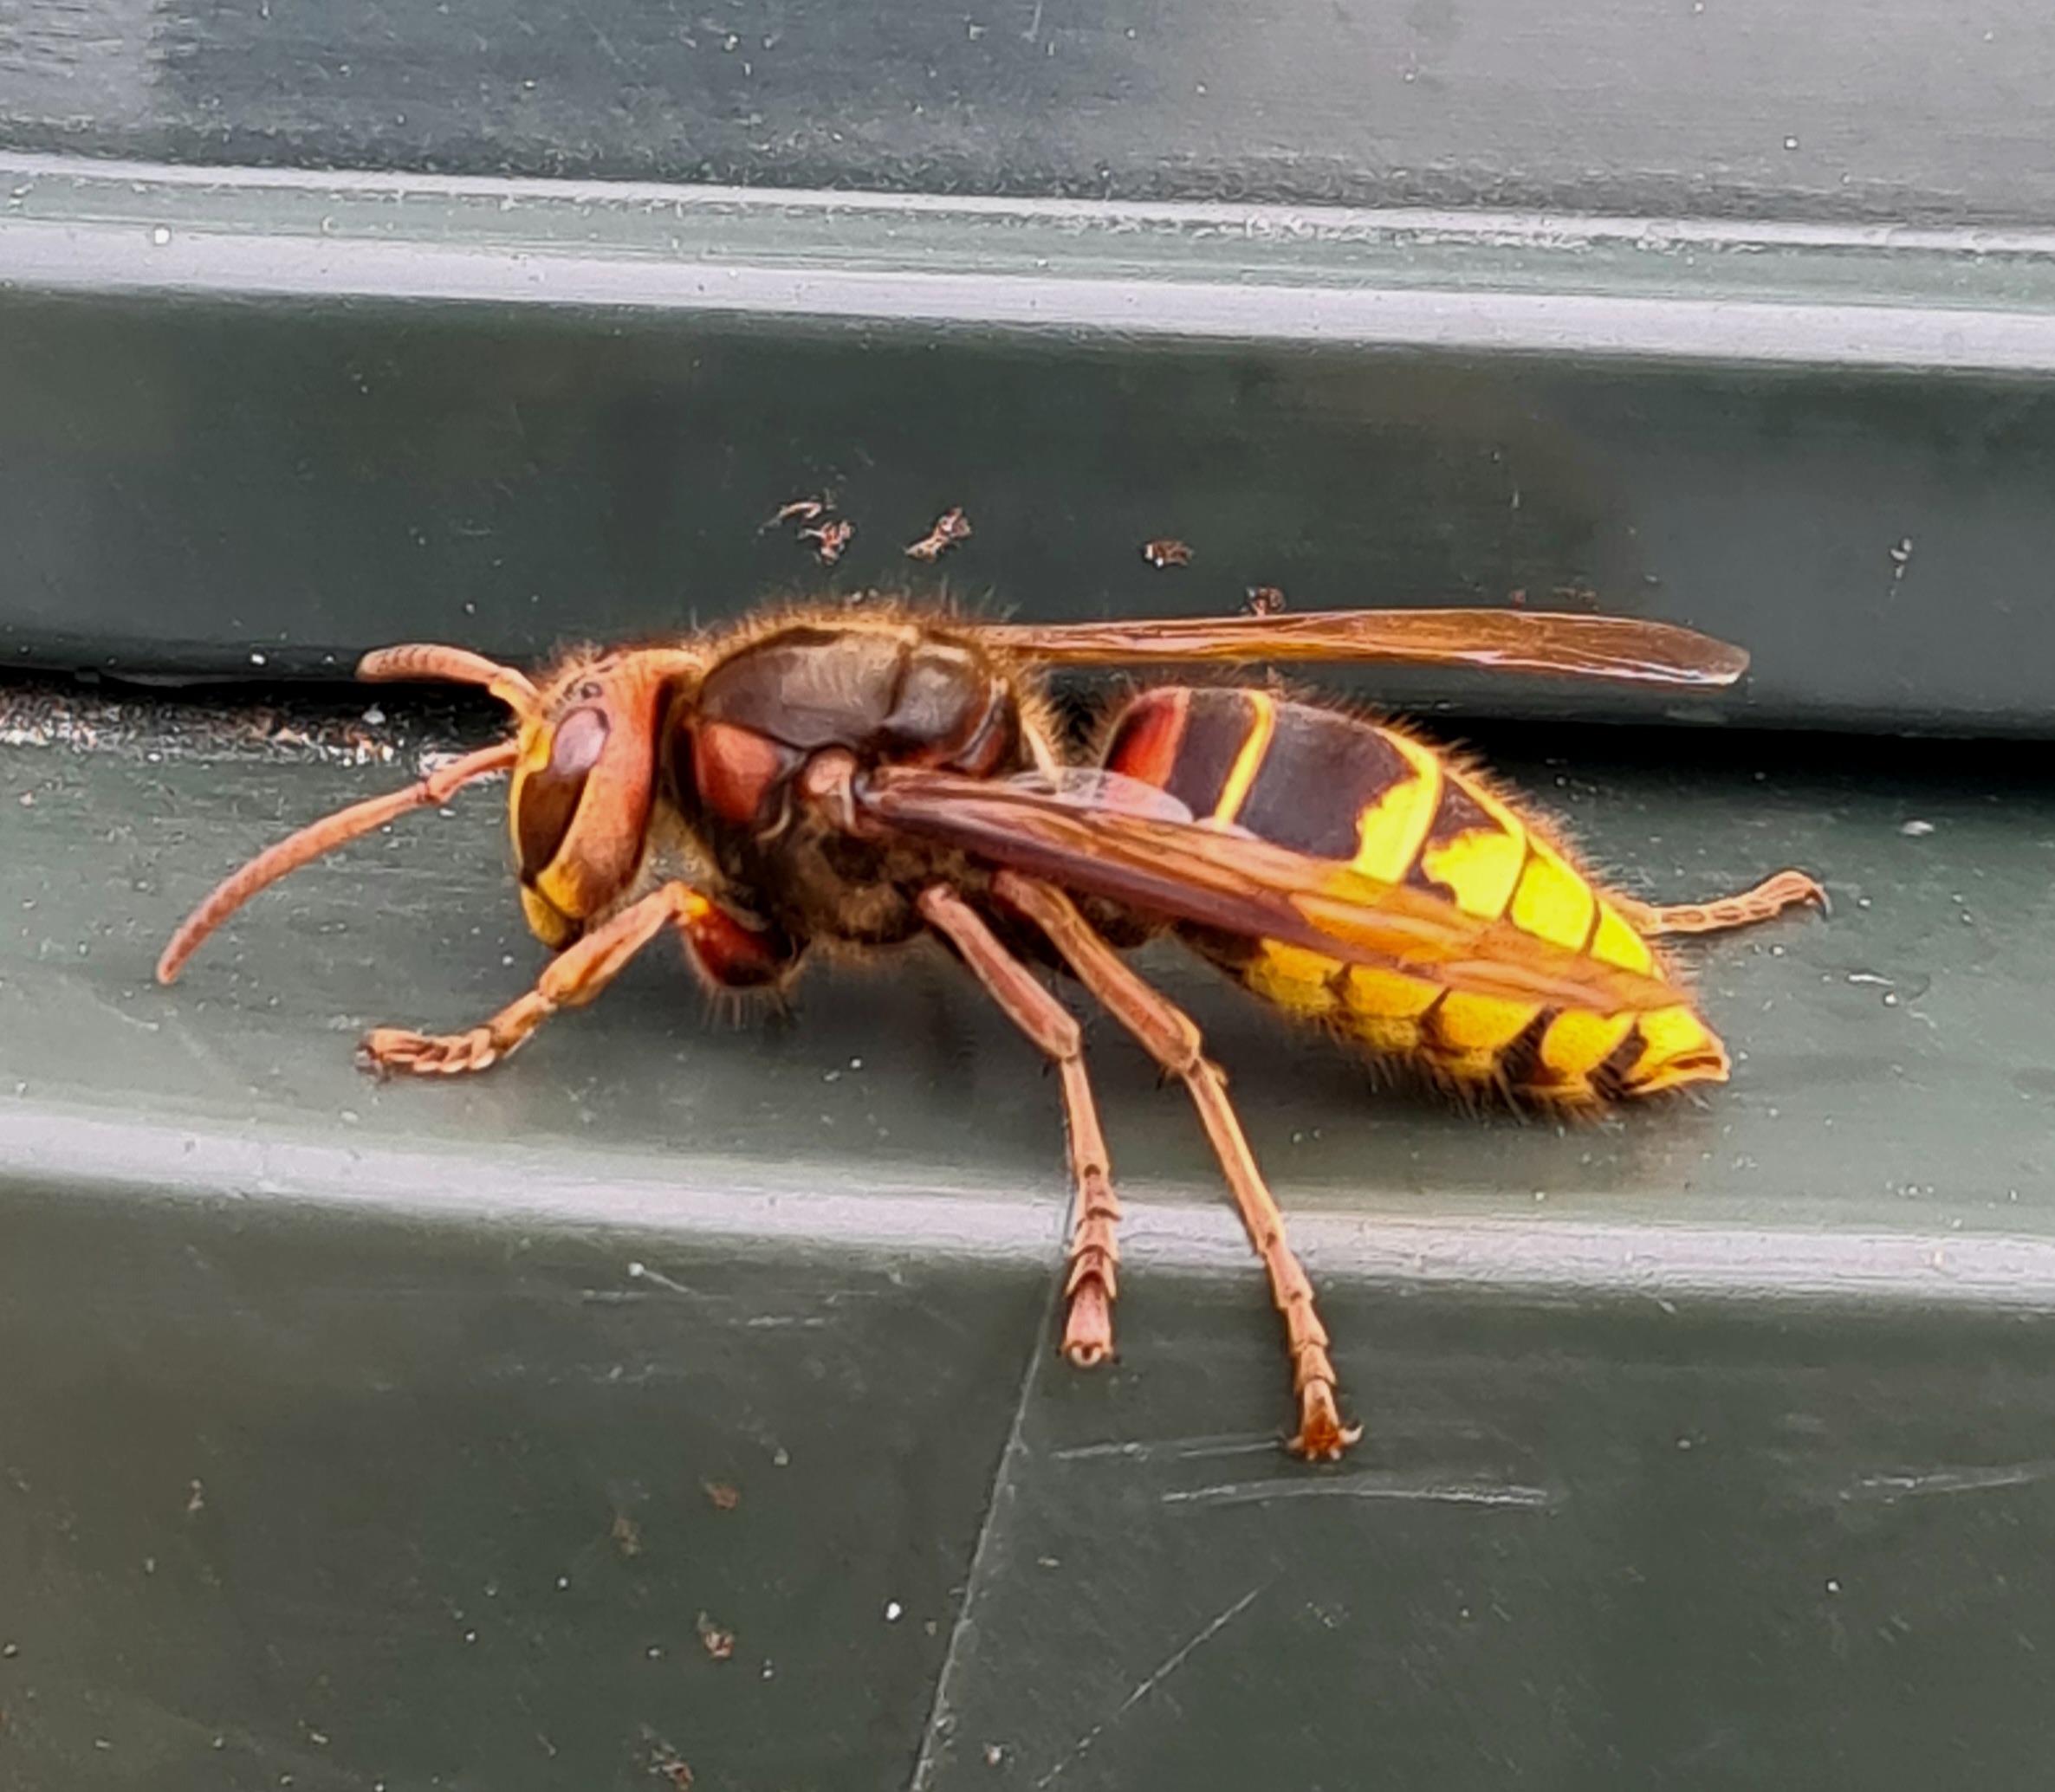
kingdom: Animalia
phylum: Arthropoda
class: Insecta
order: Hymenoptera
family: Vespidae
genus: Vespa
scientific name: Vespa crabro
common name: Stor gedehams
